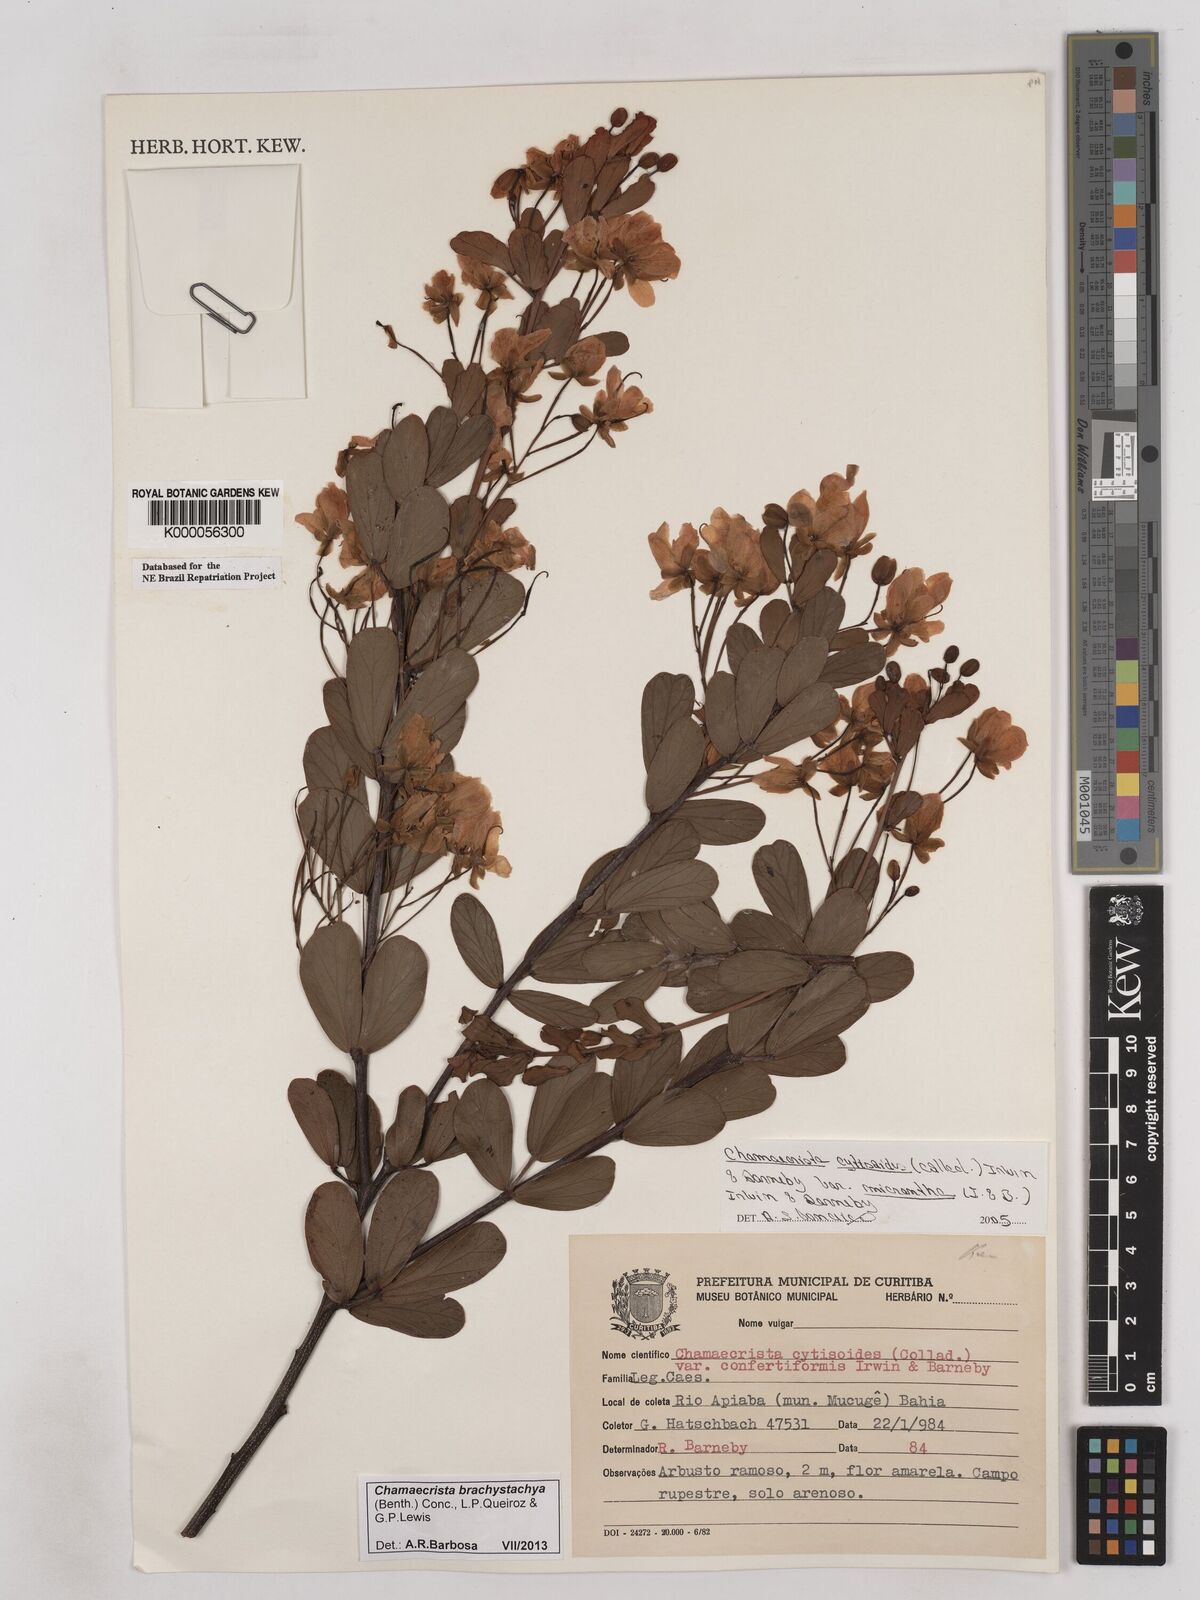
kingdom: Plantae
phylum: Tracheophyta
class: Magnoliopsida
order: Fabales
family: Fabaceae
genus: Chamaecrista
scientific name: Chamaecrista confertiformis
